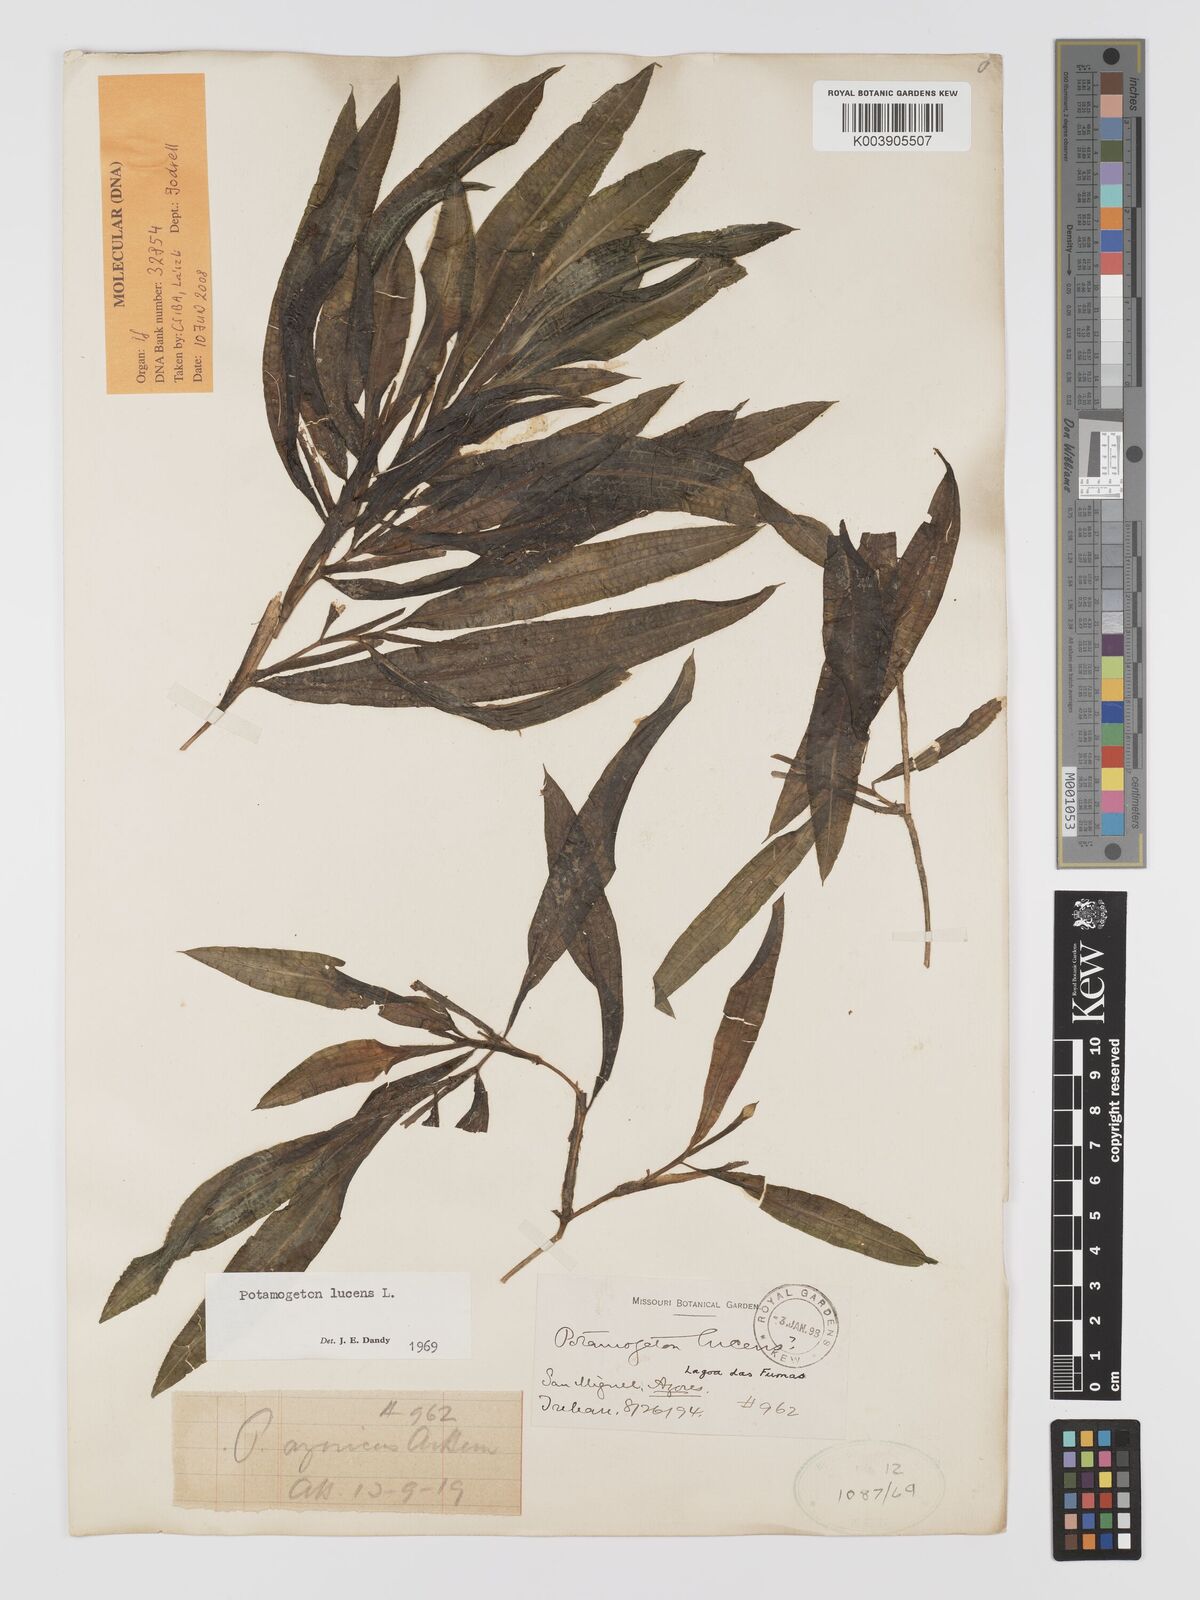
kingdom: Plantae
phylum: Tracheophyta
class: Liliopsida
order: Alismatales
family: Potamogetonaceae
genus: Potamogeton
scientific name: Potamogeton schweinfurthii
